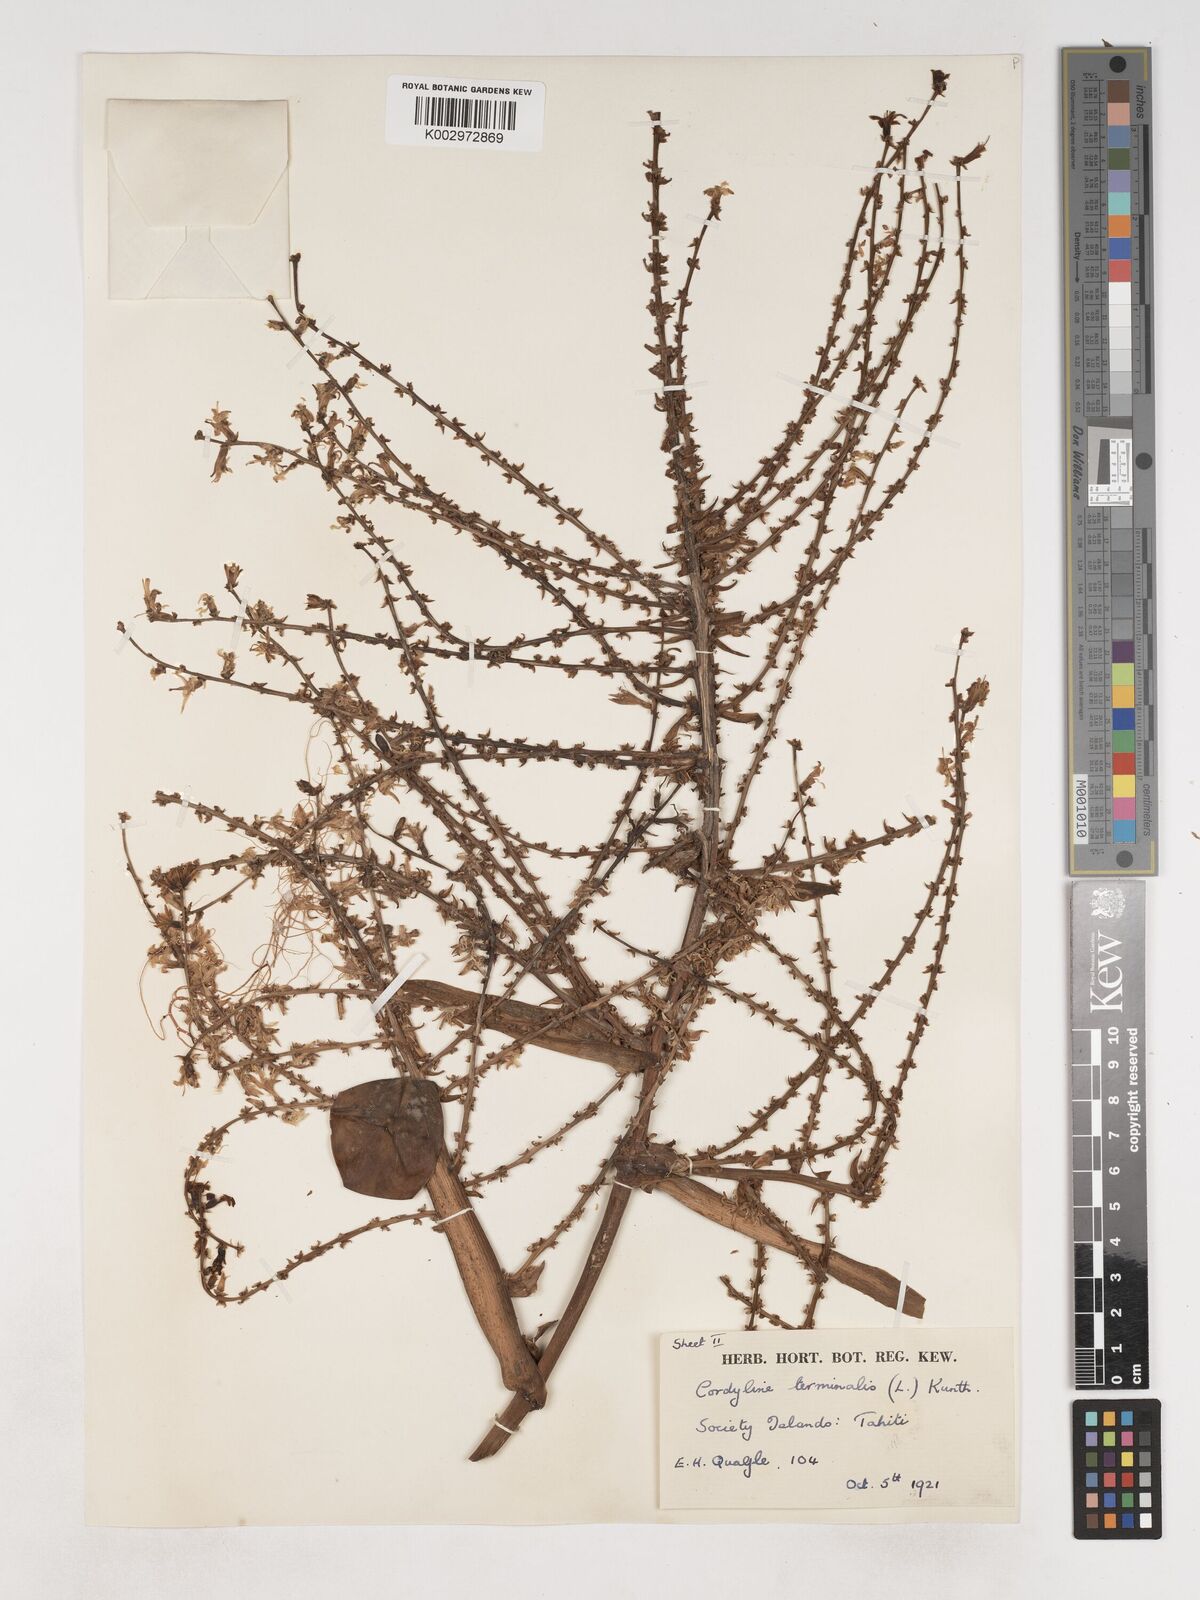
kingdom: Plantae
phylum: Tracheophyta
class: Liliopsida
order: Asparagales
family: Asparagaceae
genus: Cordyline
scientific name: Cordyline fruticosa
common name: Good-luck-plant
